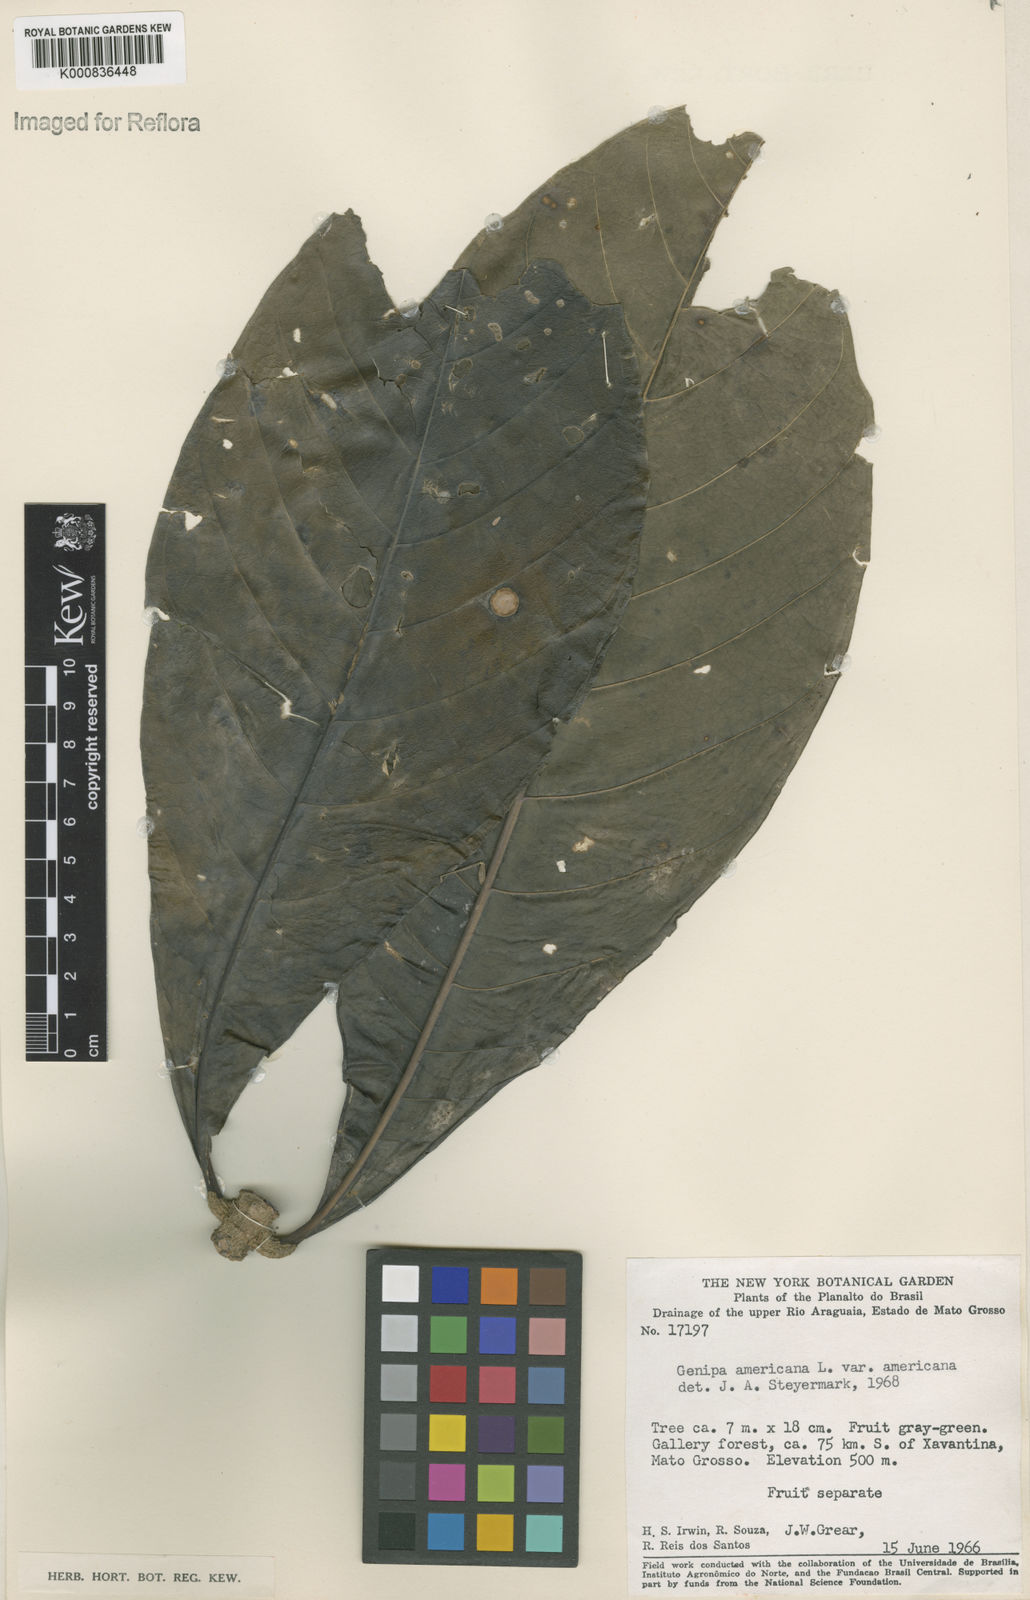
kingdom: Plantae
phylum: Tracheophyta
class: Magnoliopsida
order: Gentianales
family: Rubiaceae
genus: Genipa
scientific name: Genipa americana
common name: Genipap
